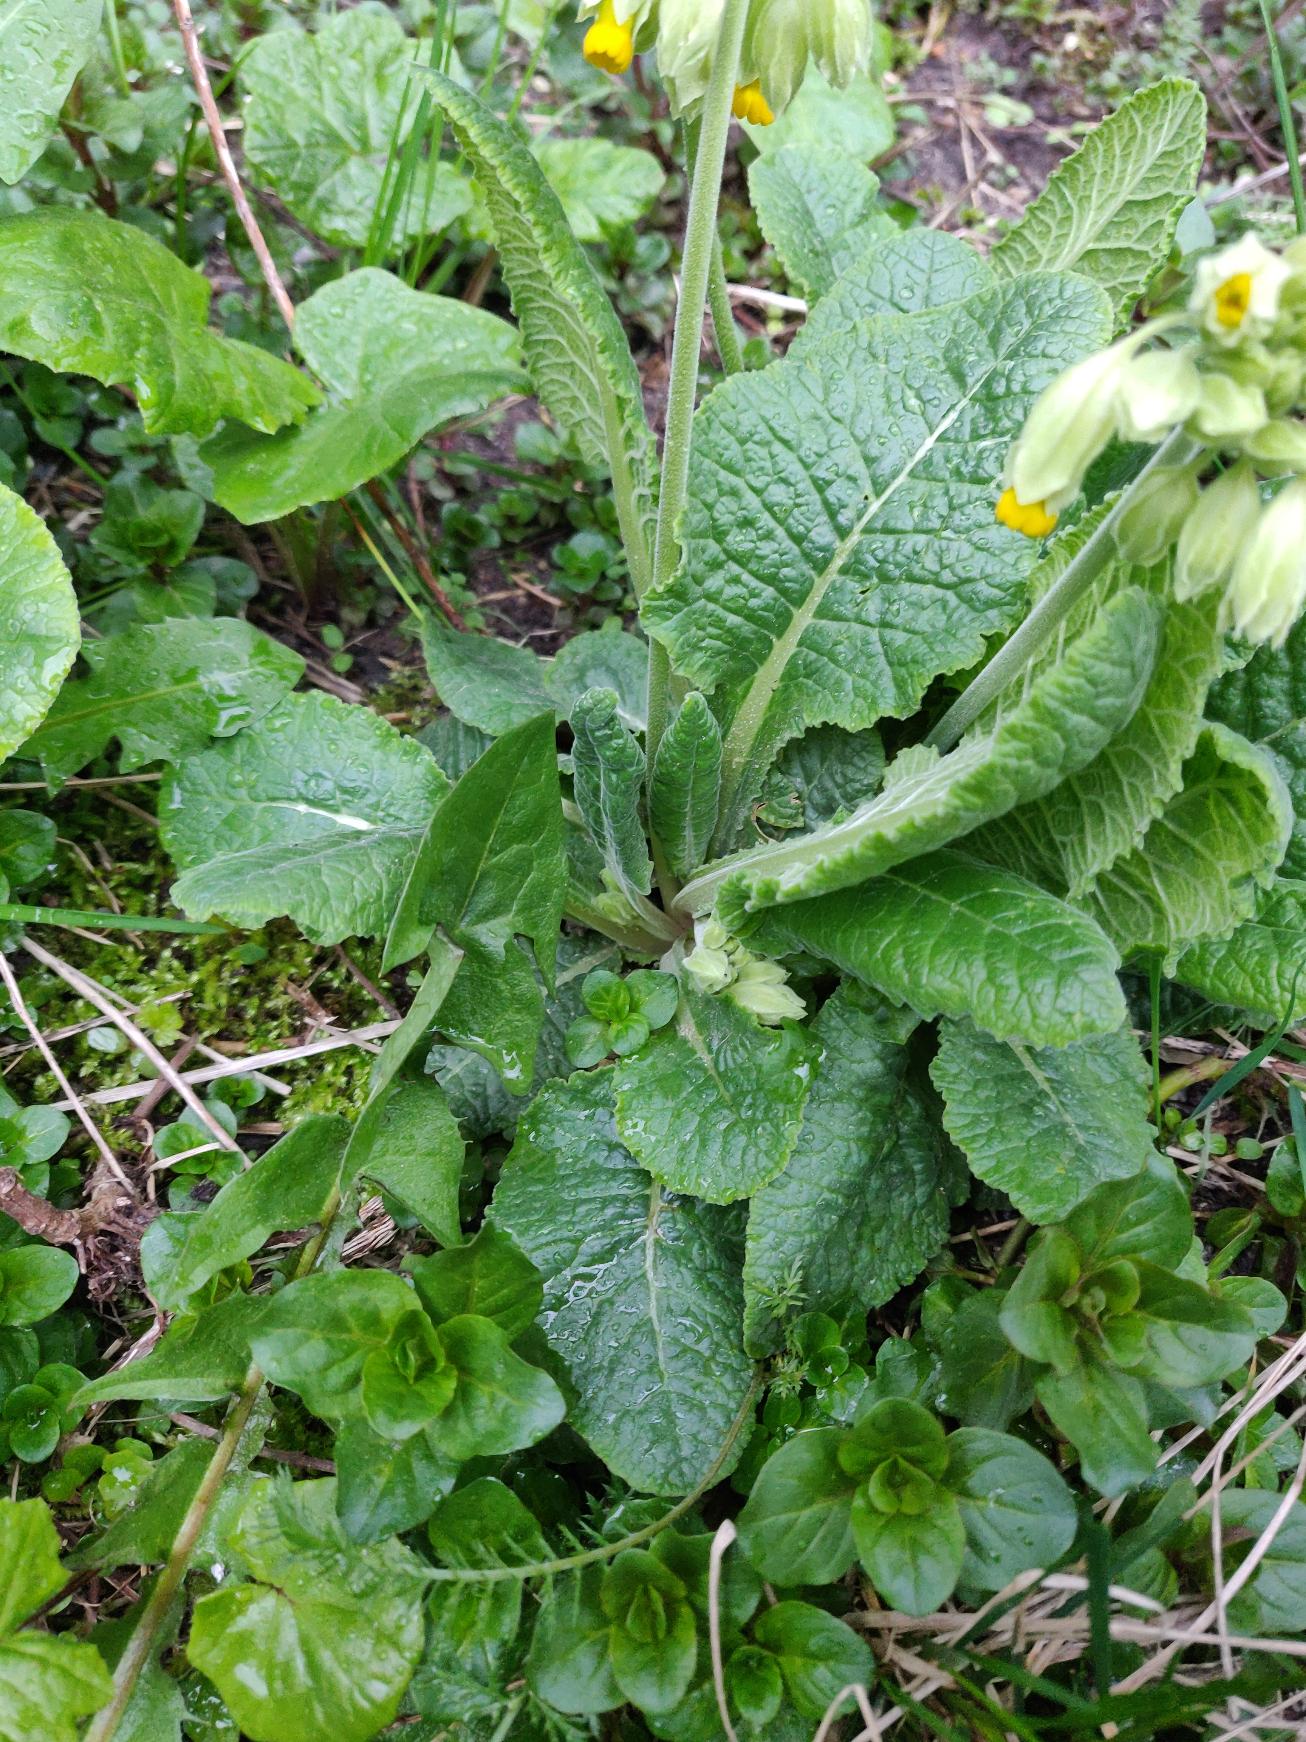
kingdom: Plantae
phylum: Tracheophyta
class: Magnoliopsida
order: Ericales
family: Primulaceae
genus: Primula
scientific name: Primula veris
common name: Hulkravet kodriver
